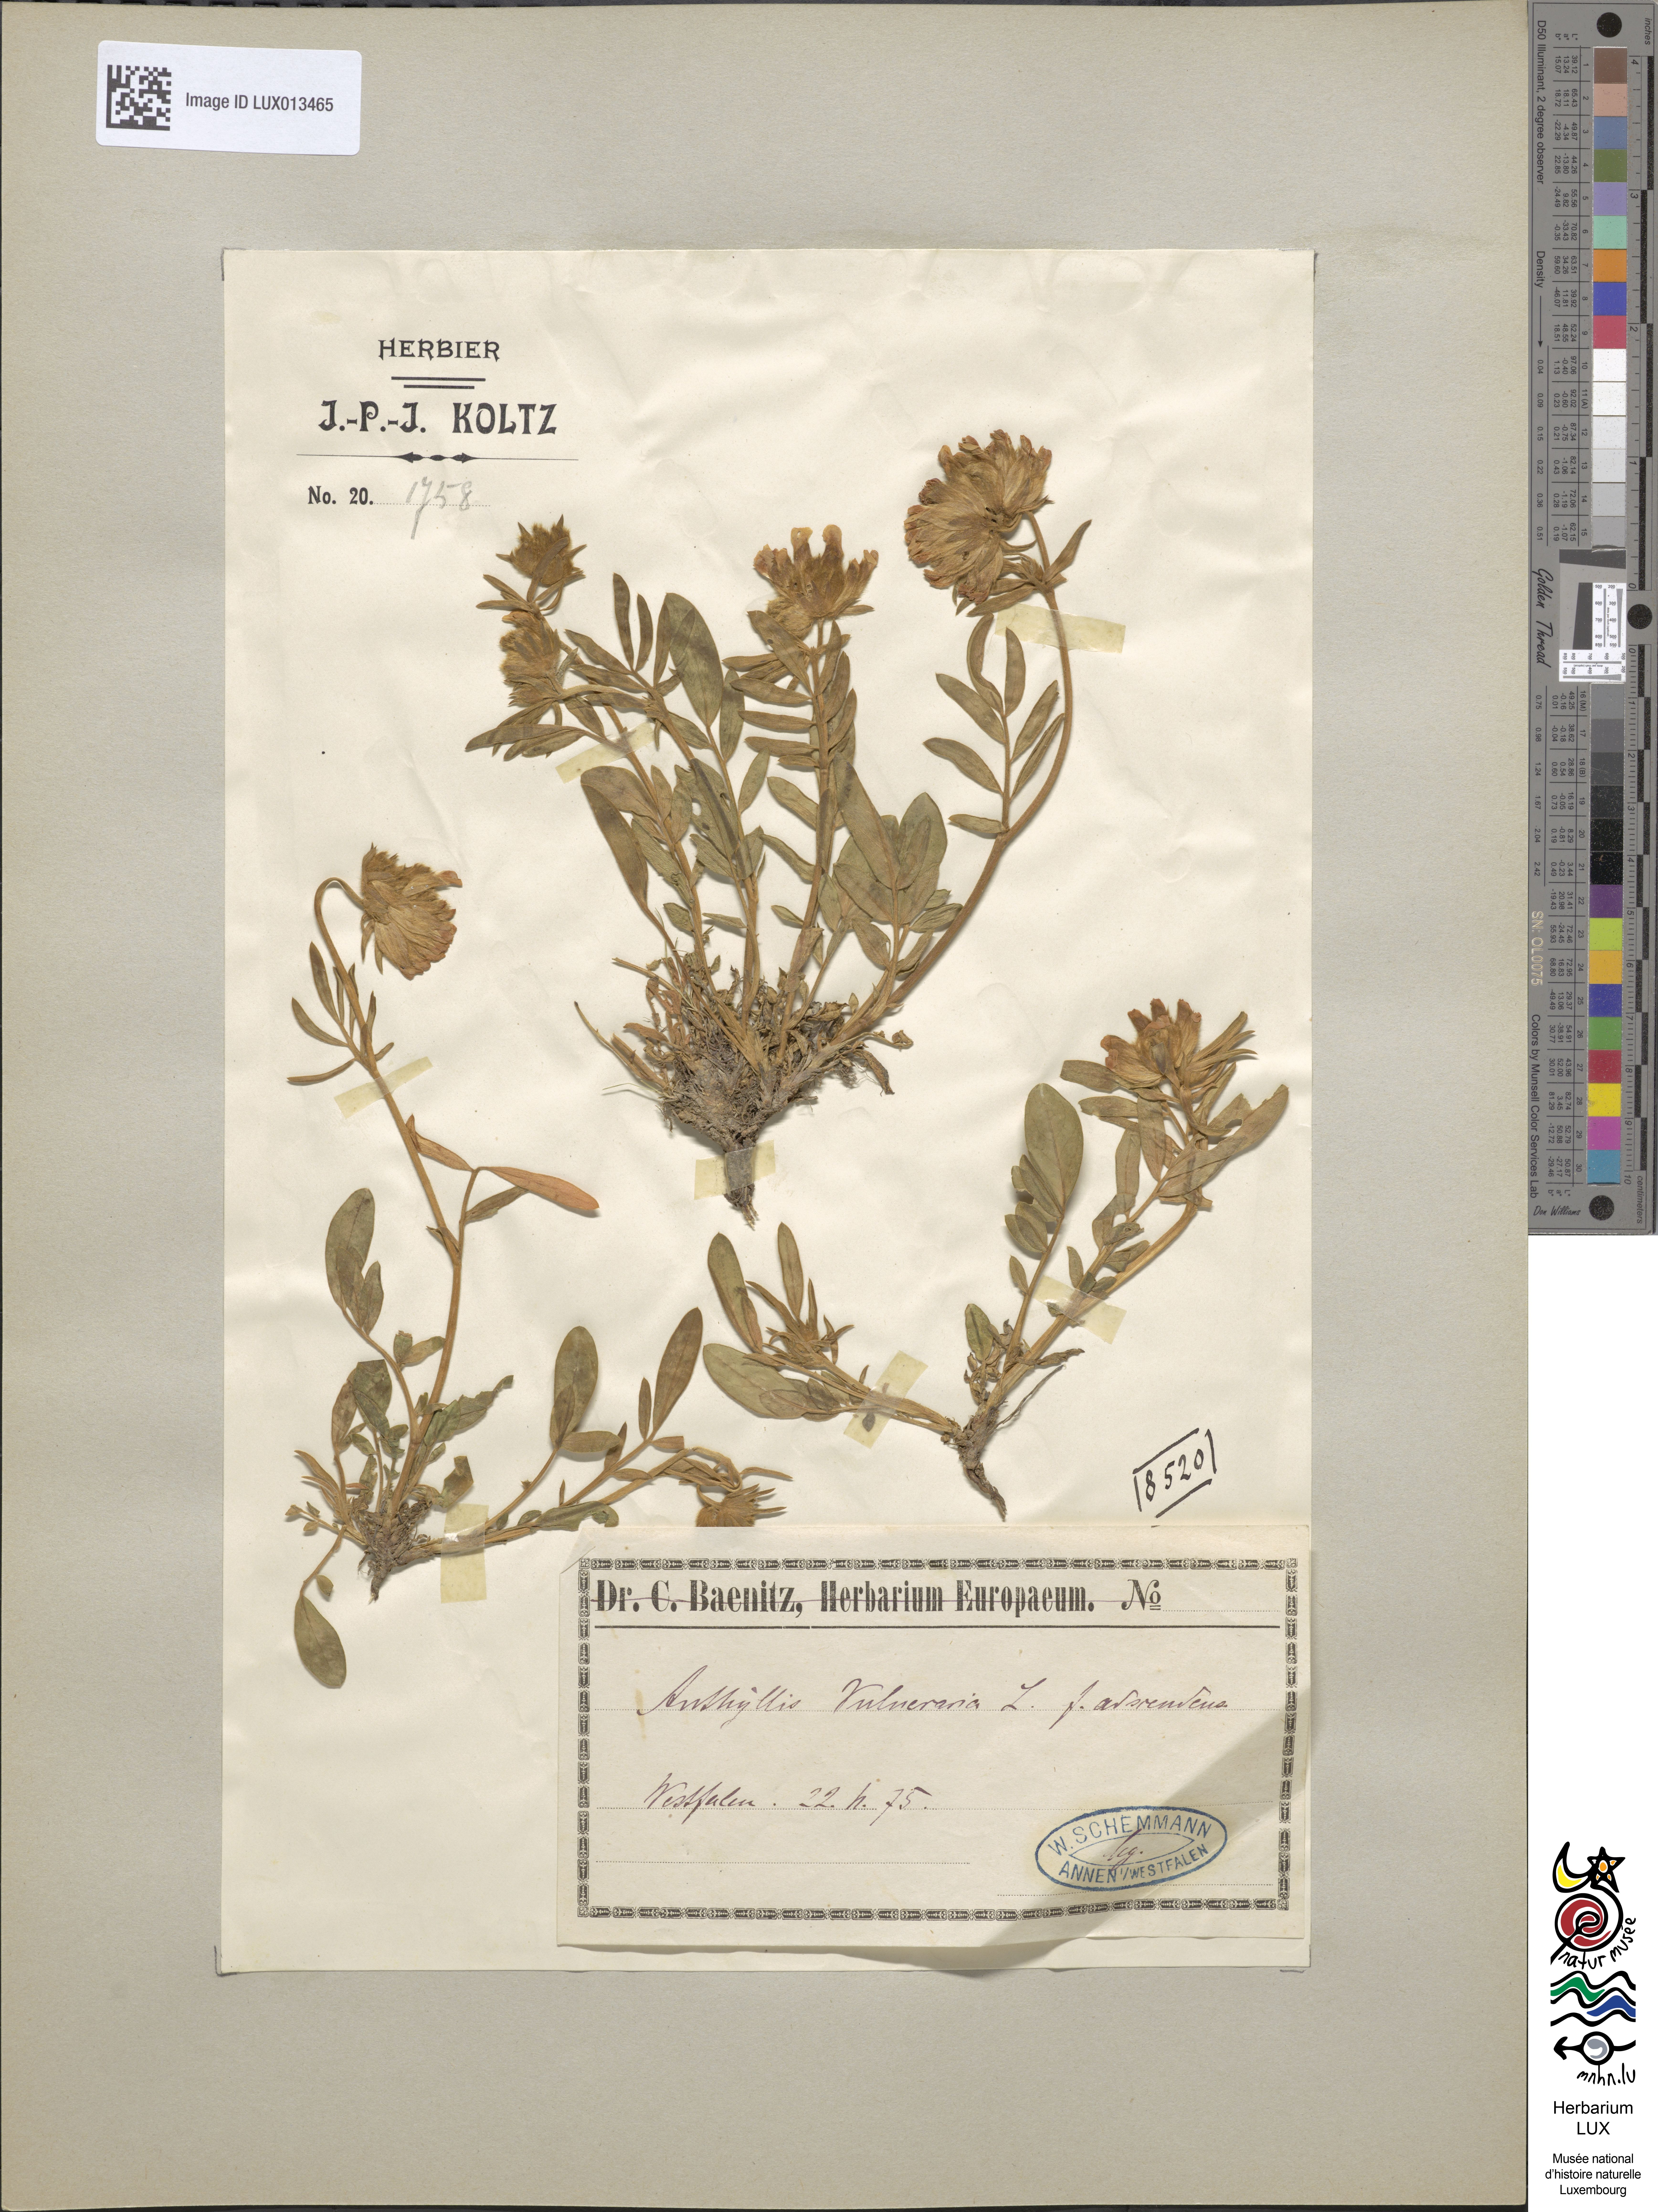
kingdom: Plantae
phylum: Tracheophyta
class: Magnoliopsida
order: Fabales
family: Fabaceae
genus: Anthyllis
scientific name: Anthyllis vulneraria
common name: Kidney vetch
